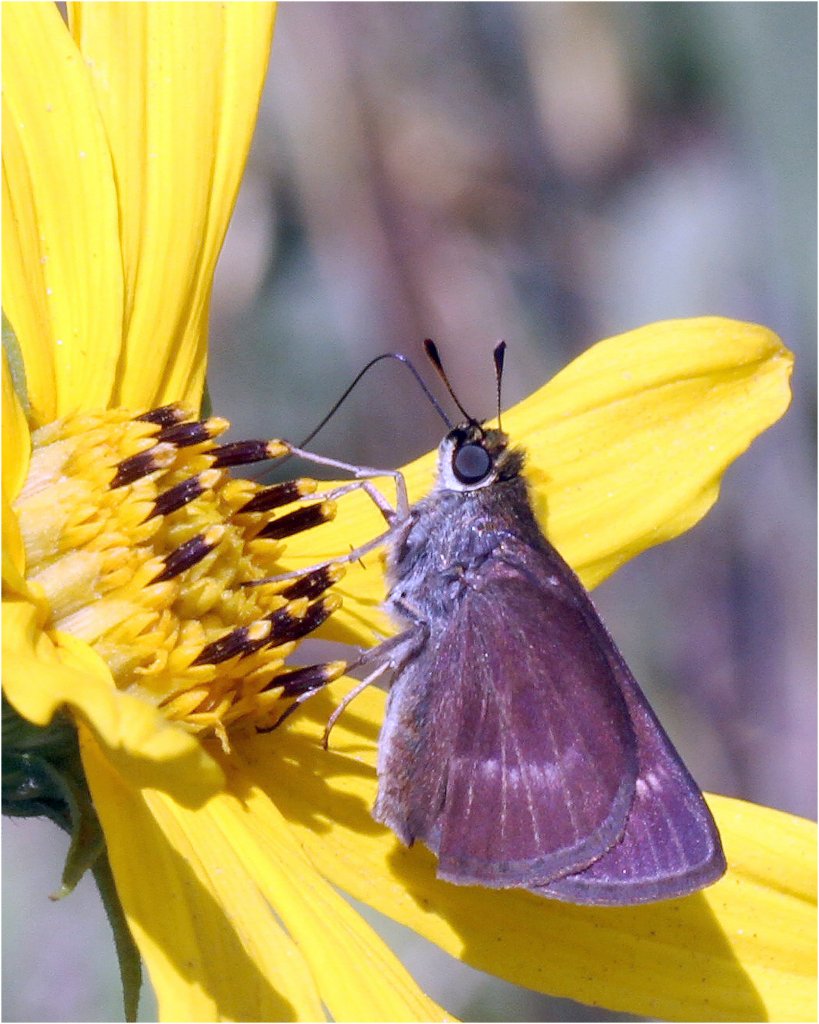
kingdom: Animalia
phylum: Arthropoda
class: Insecta
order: Lepidoptera
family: Hesperiidae
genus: Polites
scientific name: Polites egeremet
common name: Northern Broken-Dash
